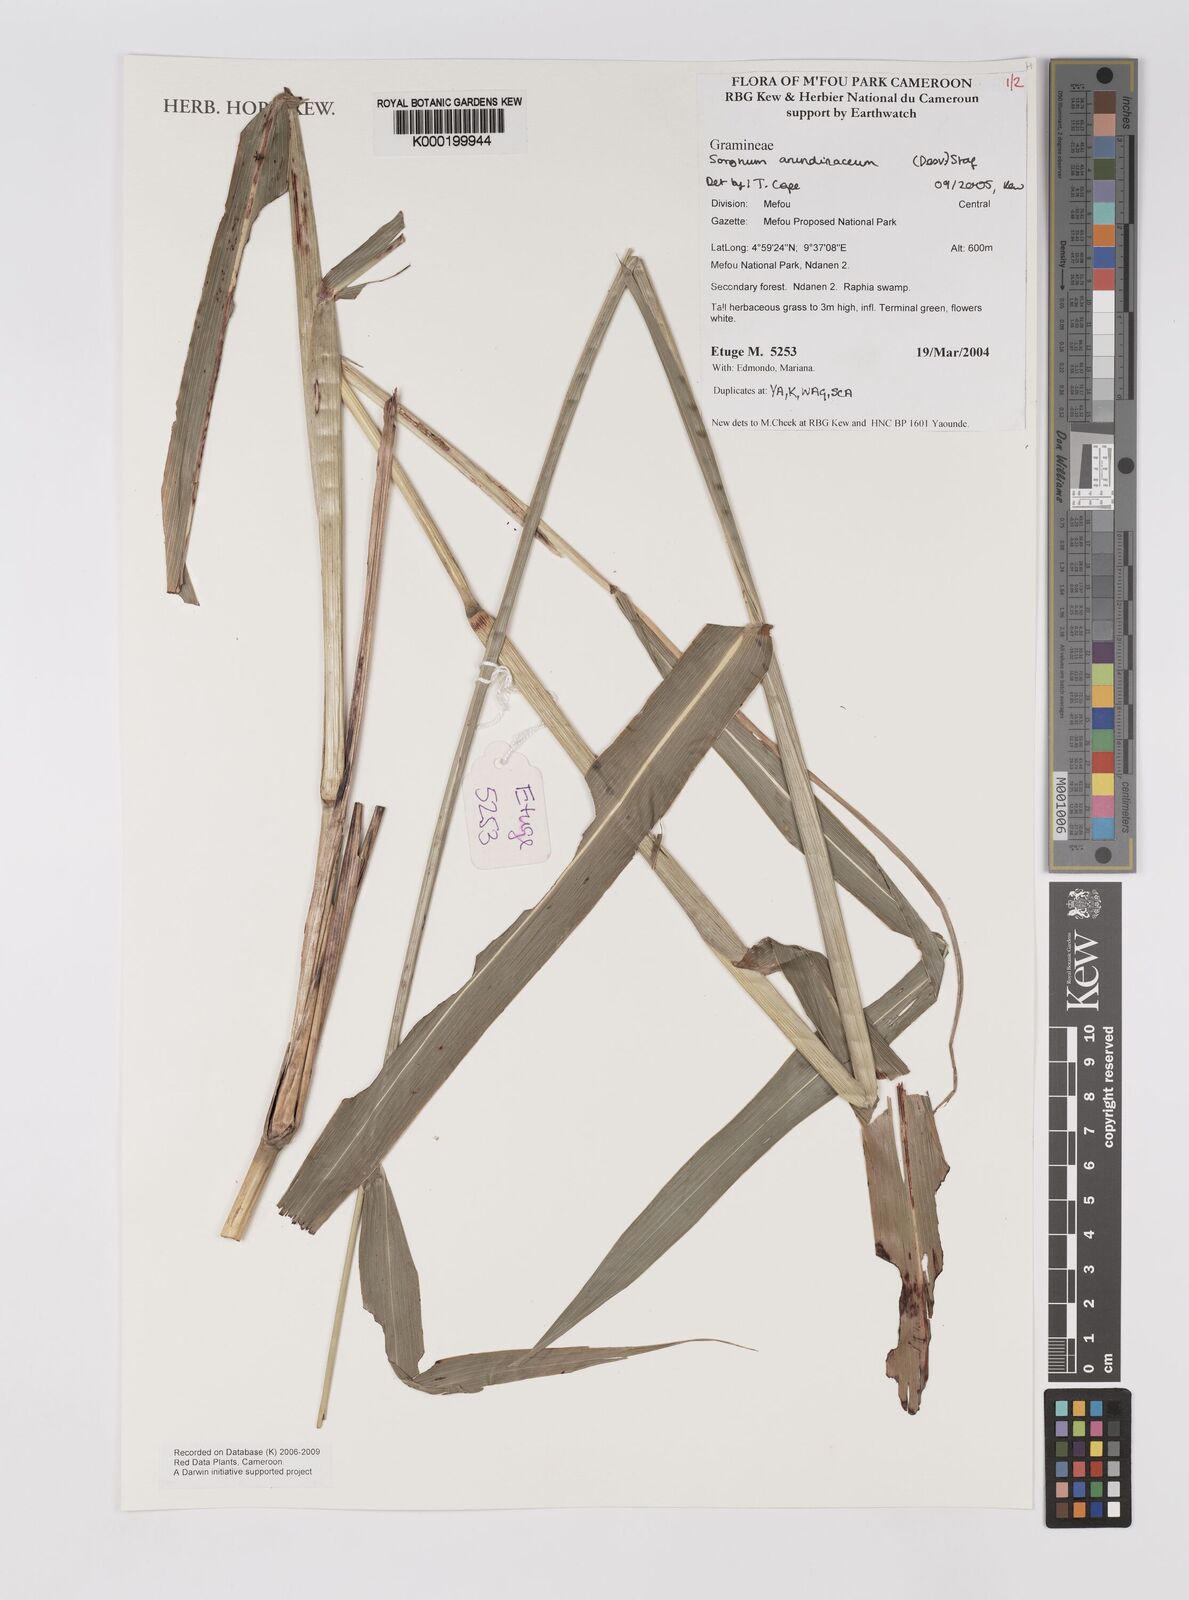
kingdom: Plantae
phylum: Tracheophyta
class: Liliopsida
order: Poales
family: Poaceae
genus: Sorghum
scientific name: Sorghum arundinaceum
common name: Sorghum
